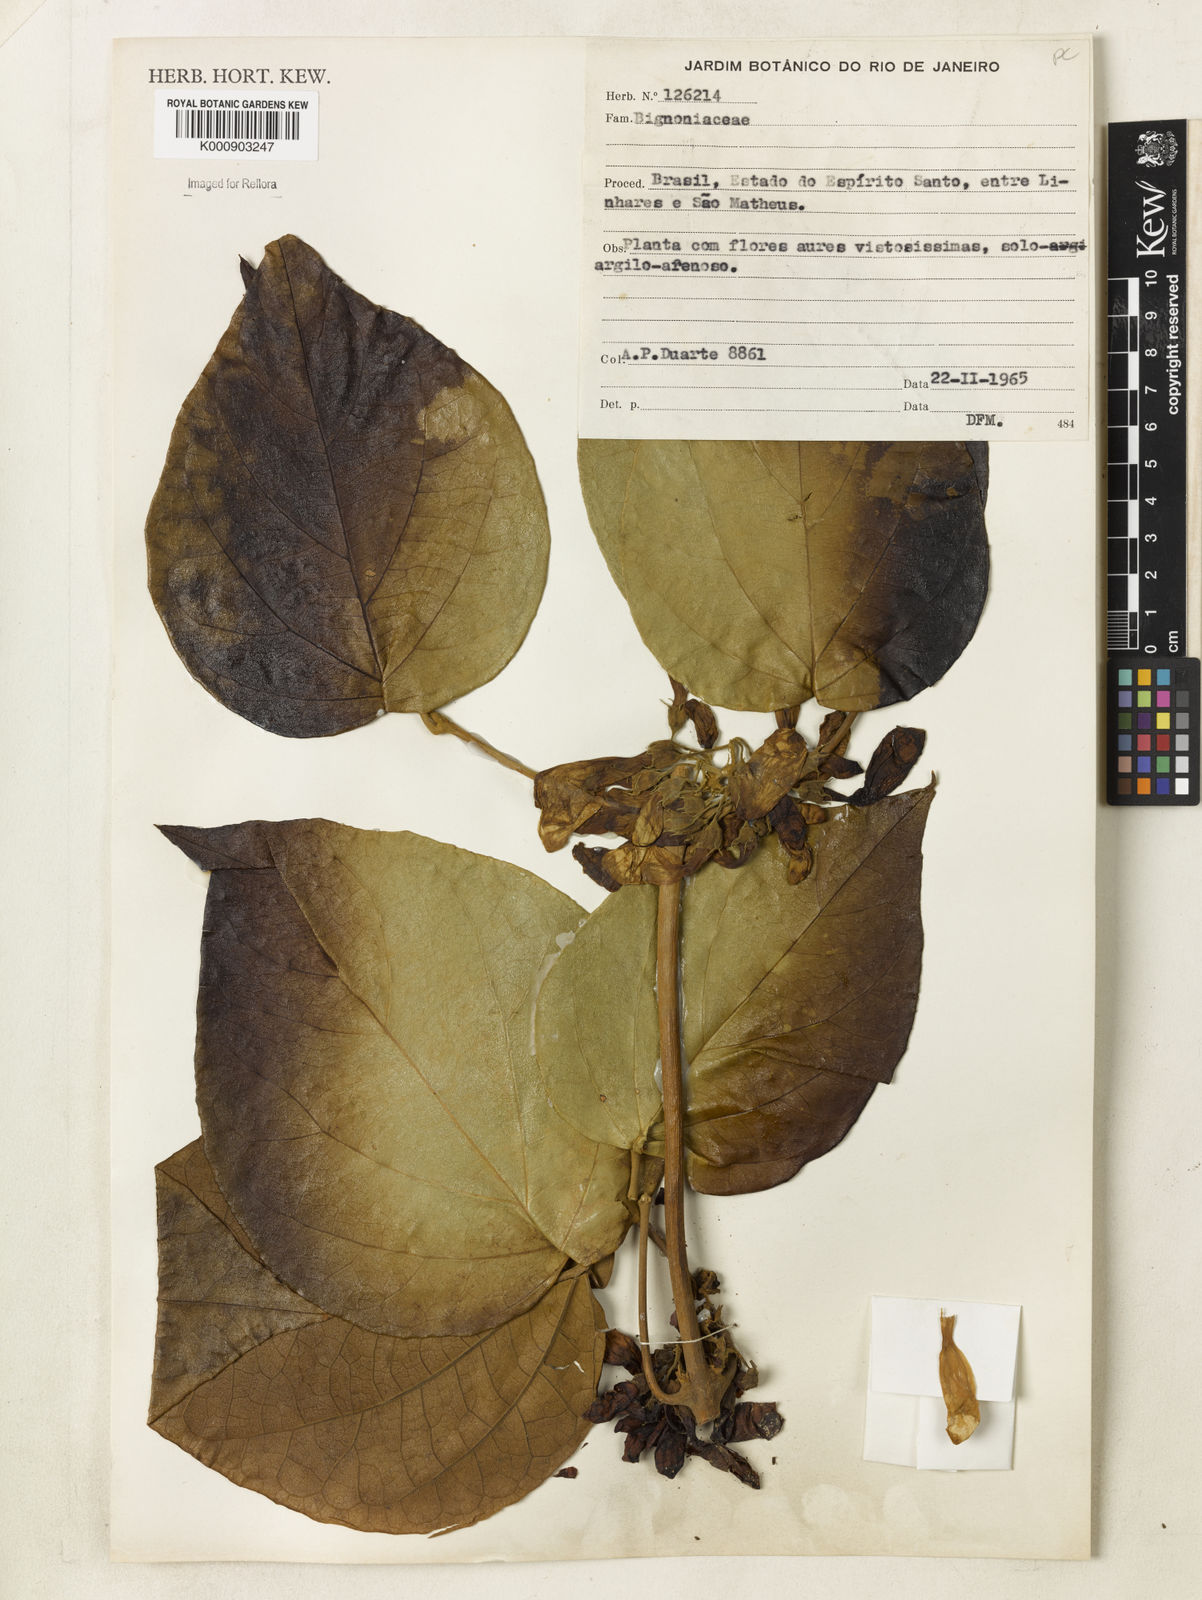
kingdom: Plantae
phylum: Tracheophyta
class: Magnoliopsida
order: Lamiales
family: Bignoniaceae
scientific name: Bignoniaceae
